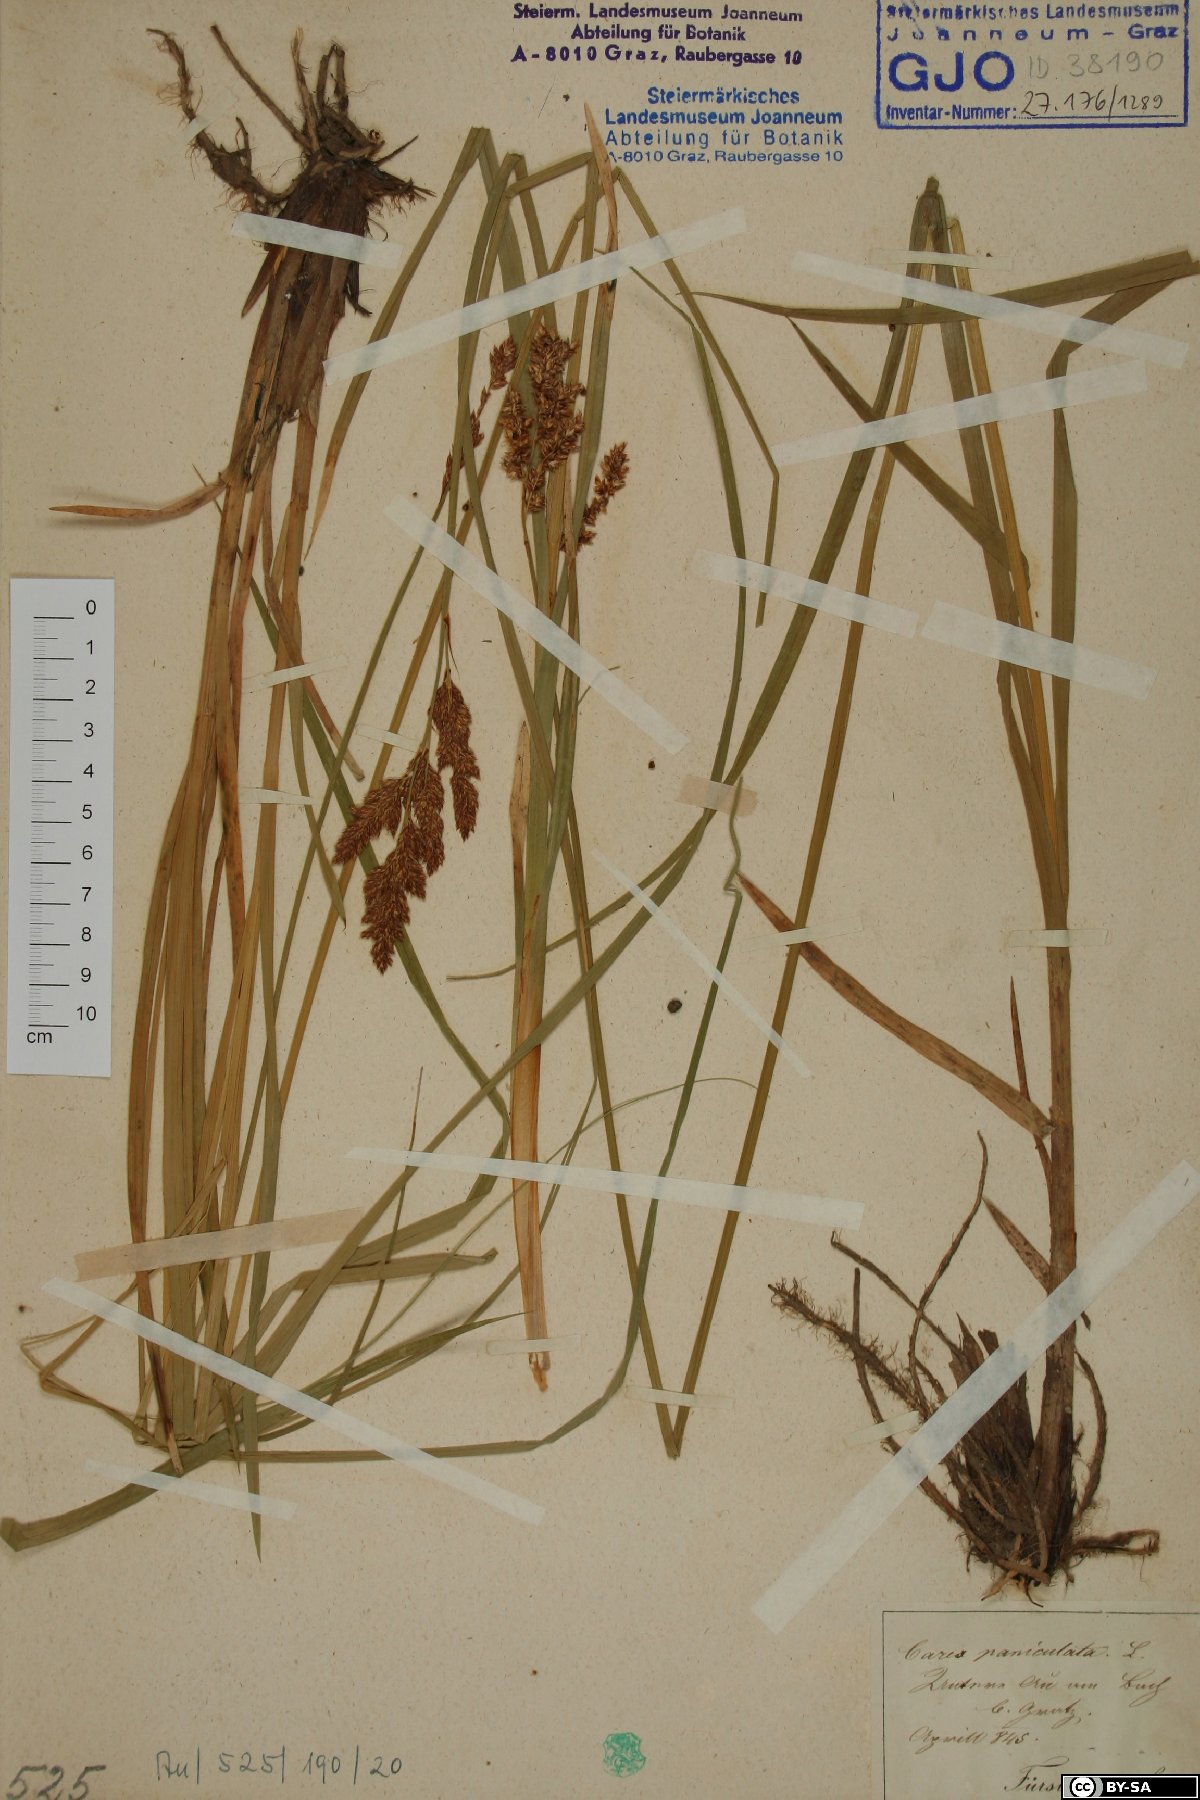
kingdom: Plantae
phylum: Tracheophyta
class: Liliopsida
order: Poales
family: Cyperaceae
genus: Carex
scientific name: Carex paniculata
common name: Greater tussock-sedge
